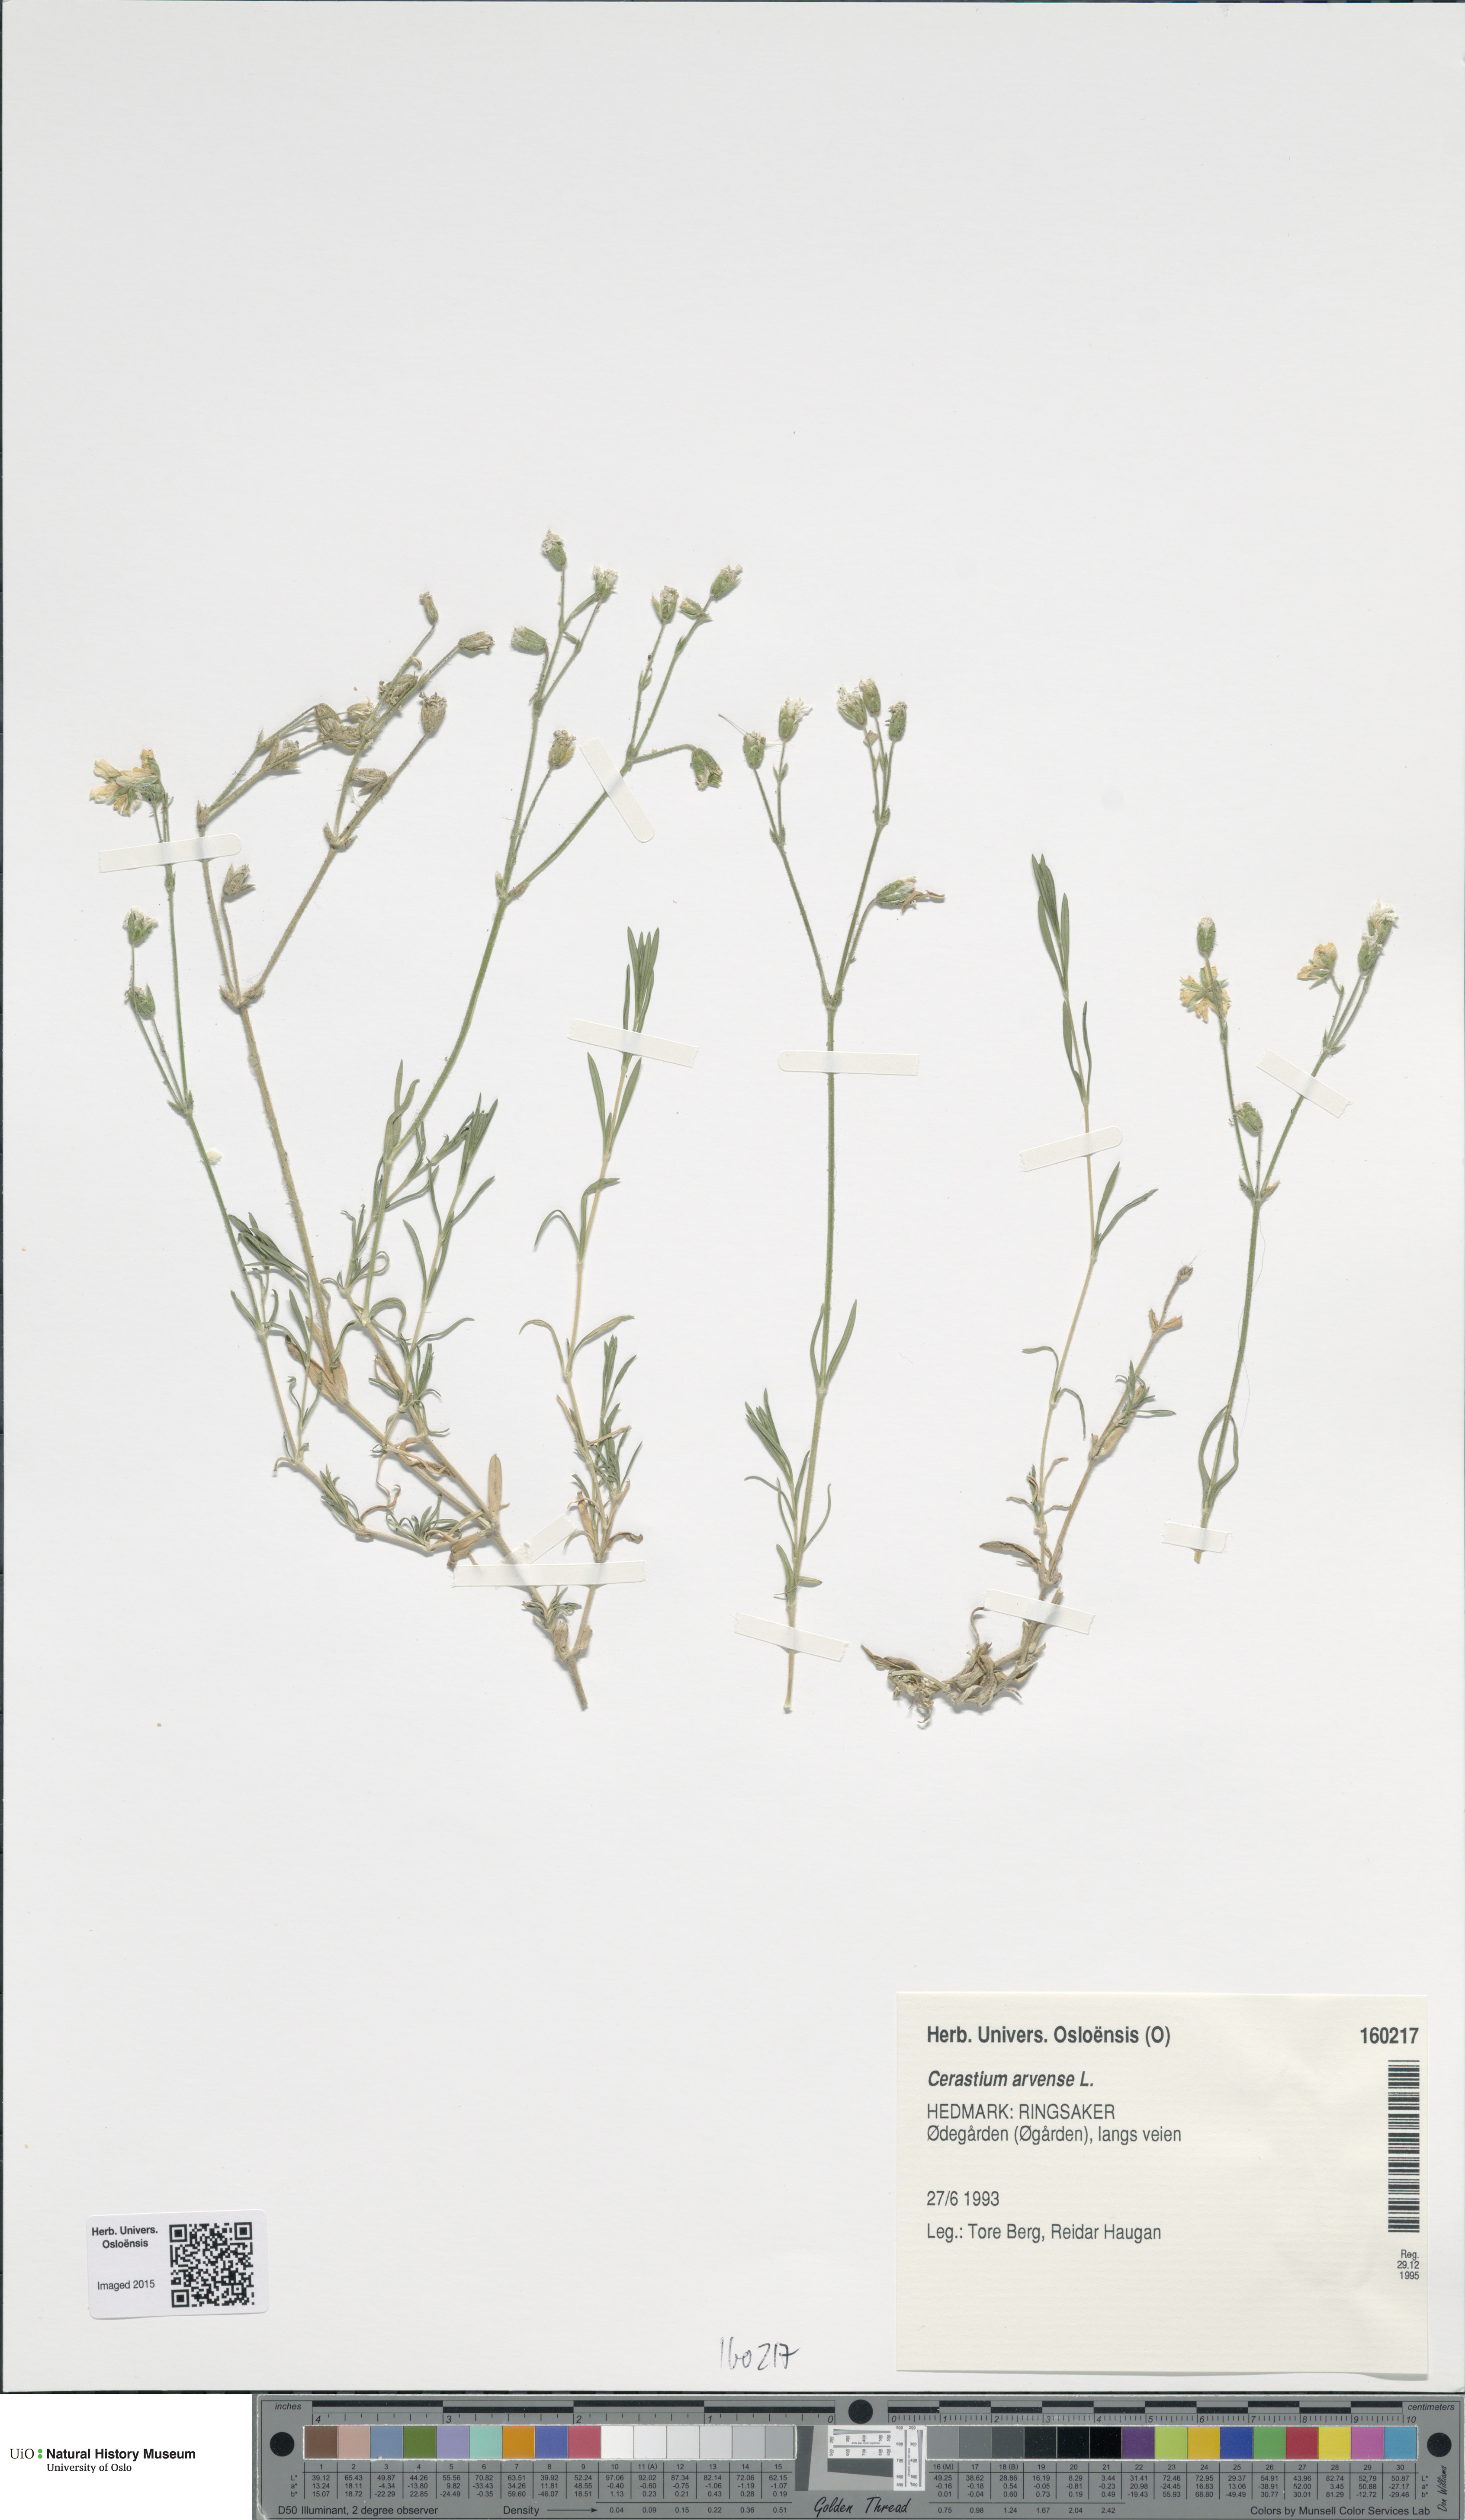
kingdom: Plantae
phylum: Tracheophyta
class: Magnoliopsida
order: Caryophyllales
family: Caryophyllaceae
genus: Cerastium
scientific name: Cerastium arvense
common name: Field mouse-ear
